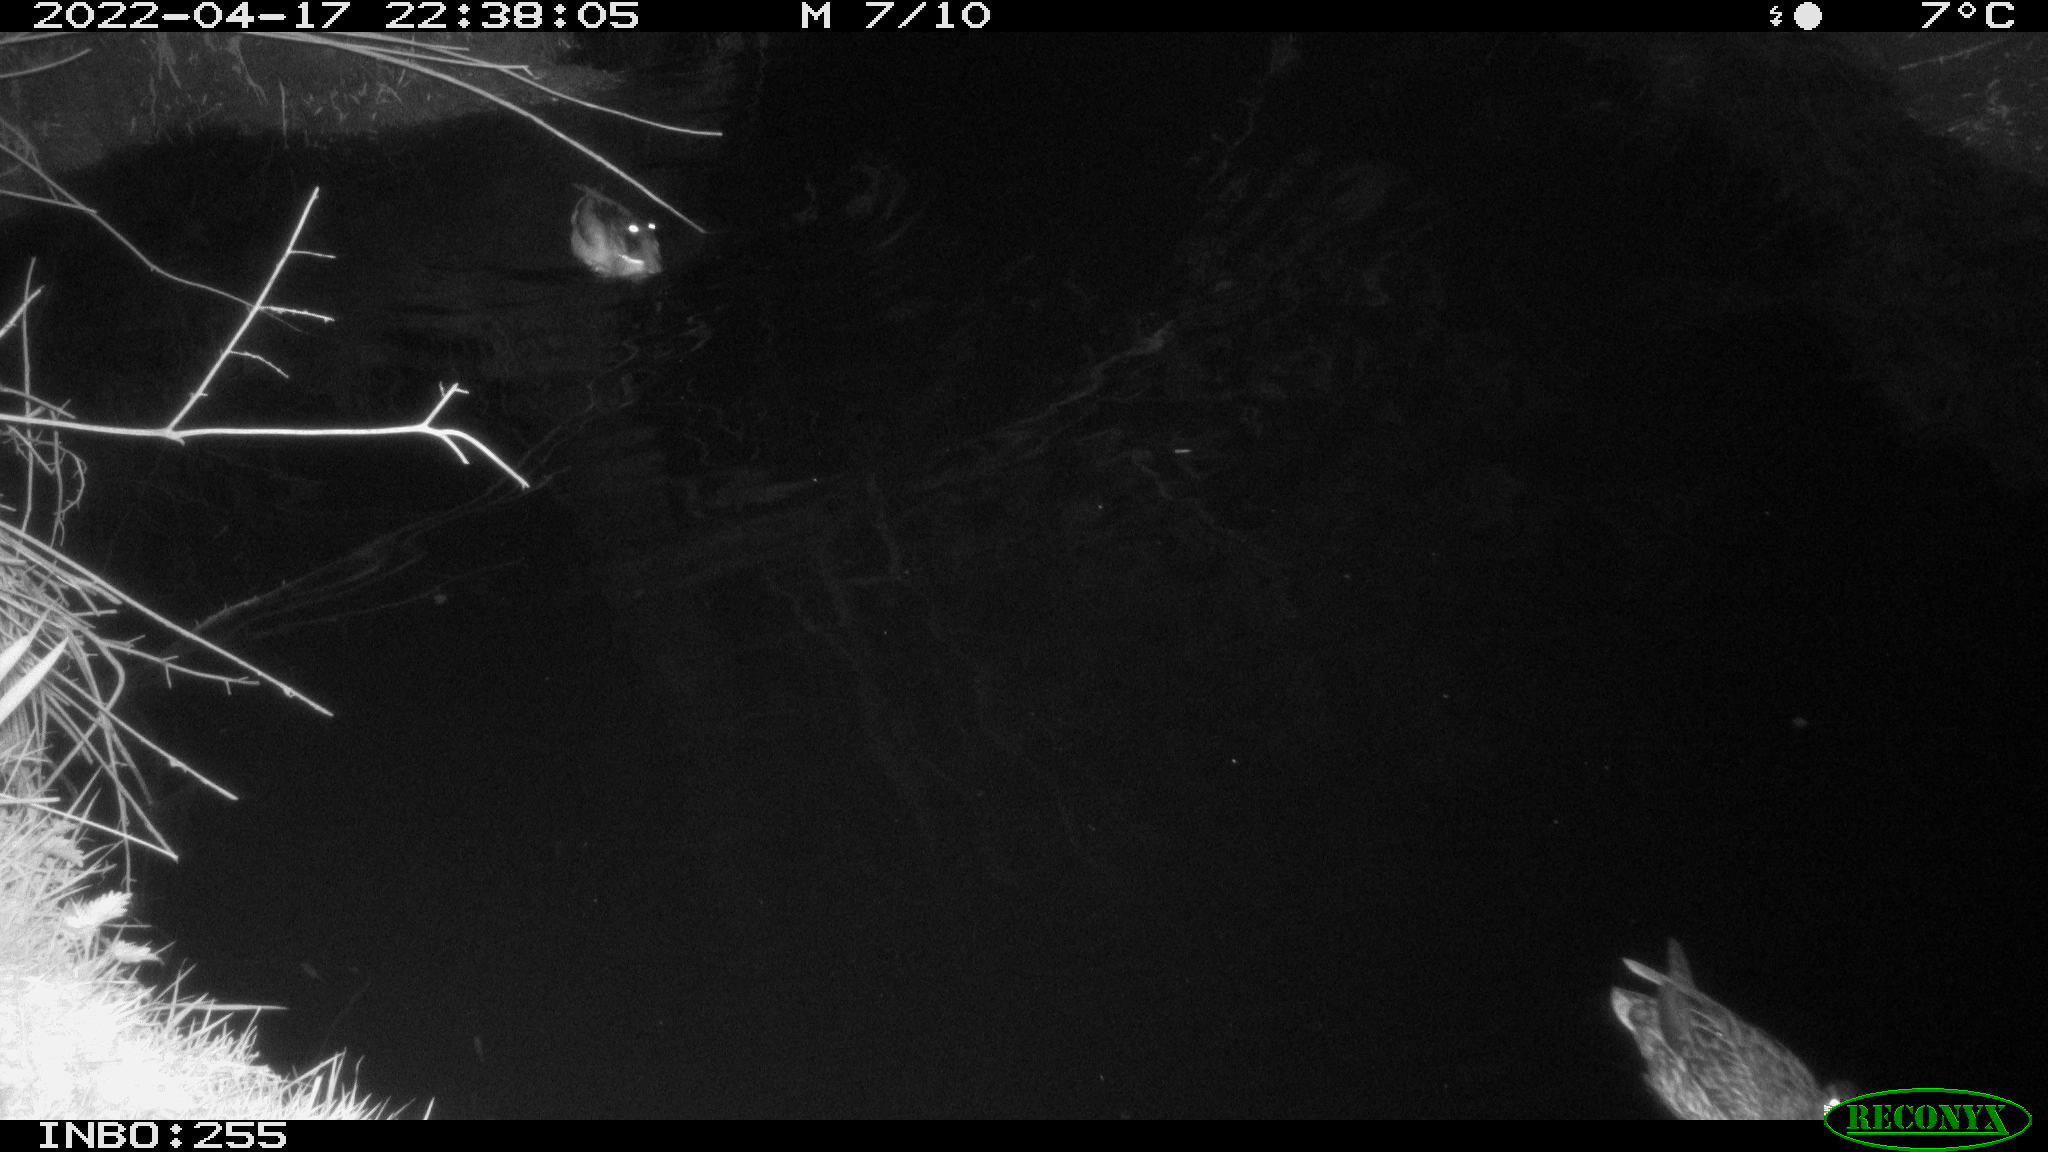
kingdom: Animalia
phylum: Chordata
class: Aves
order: Anseriformes
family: Anatidae
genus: Anas
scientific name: Anas platyrhynchos
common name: Mallard
